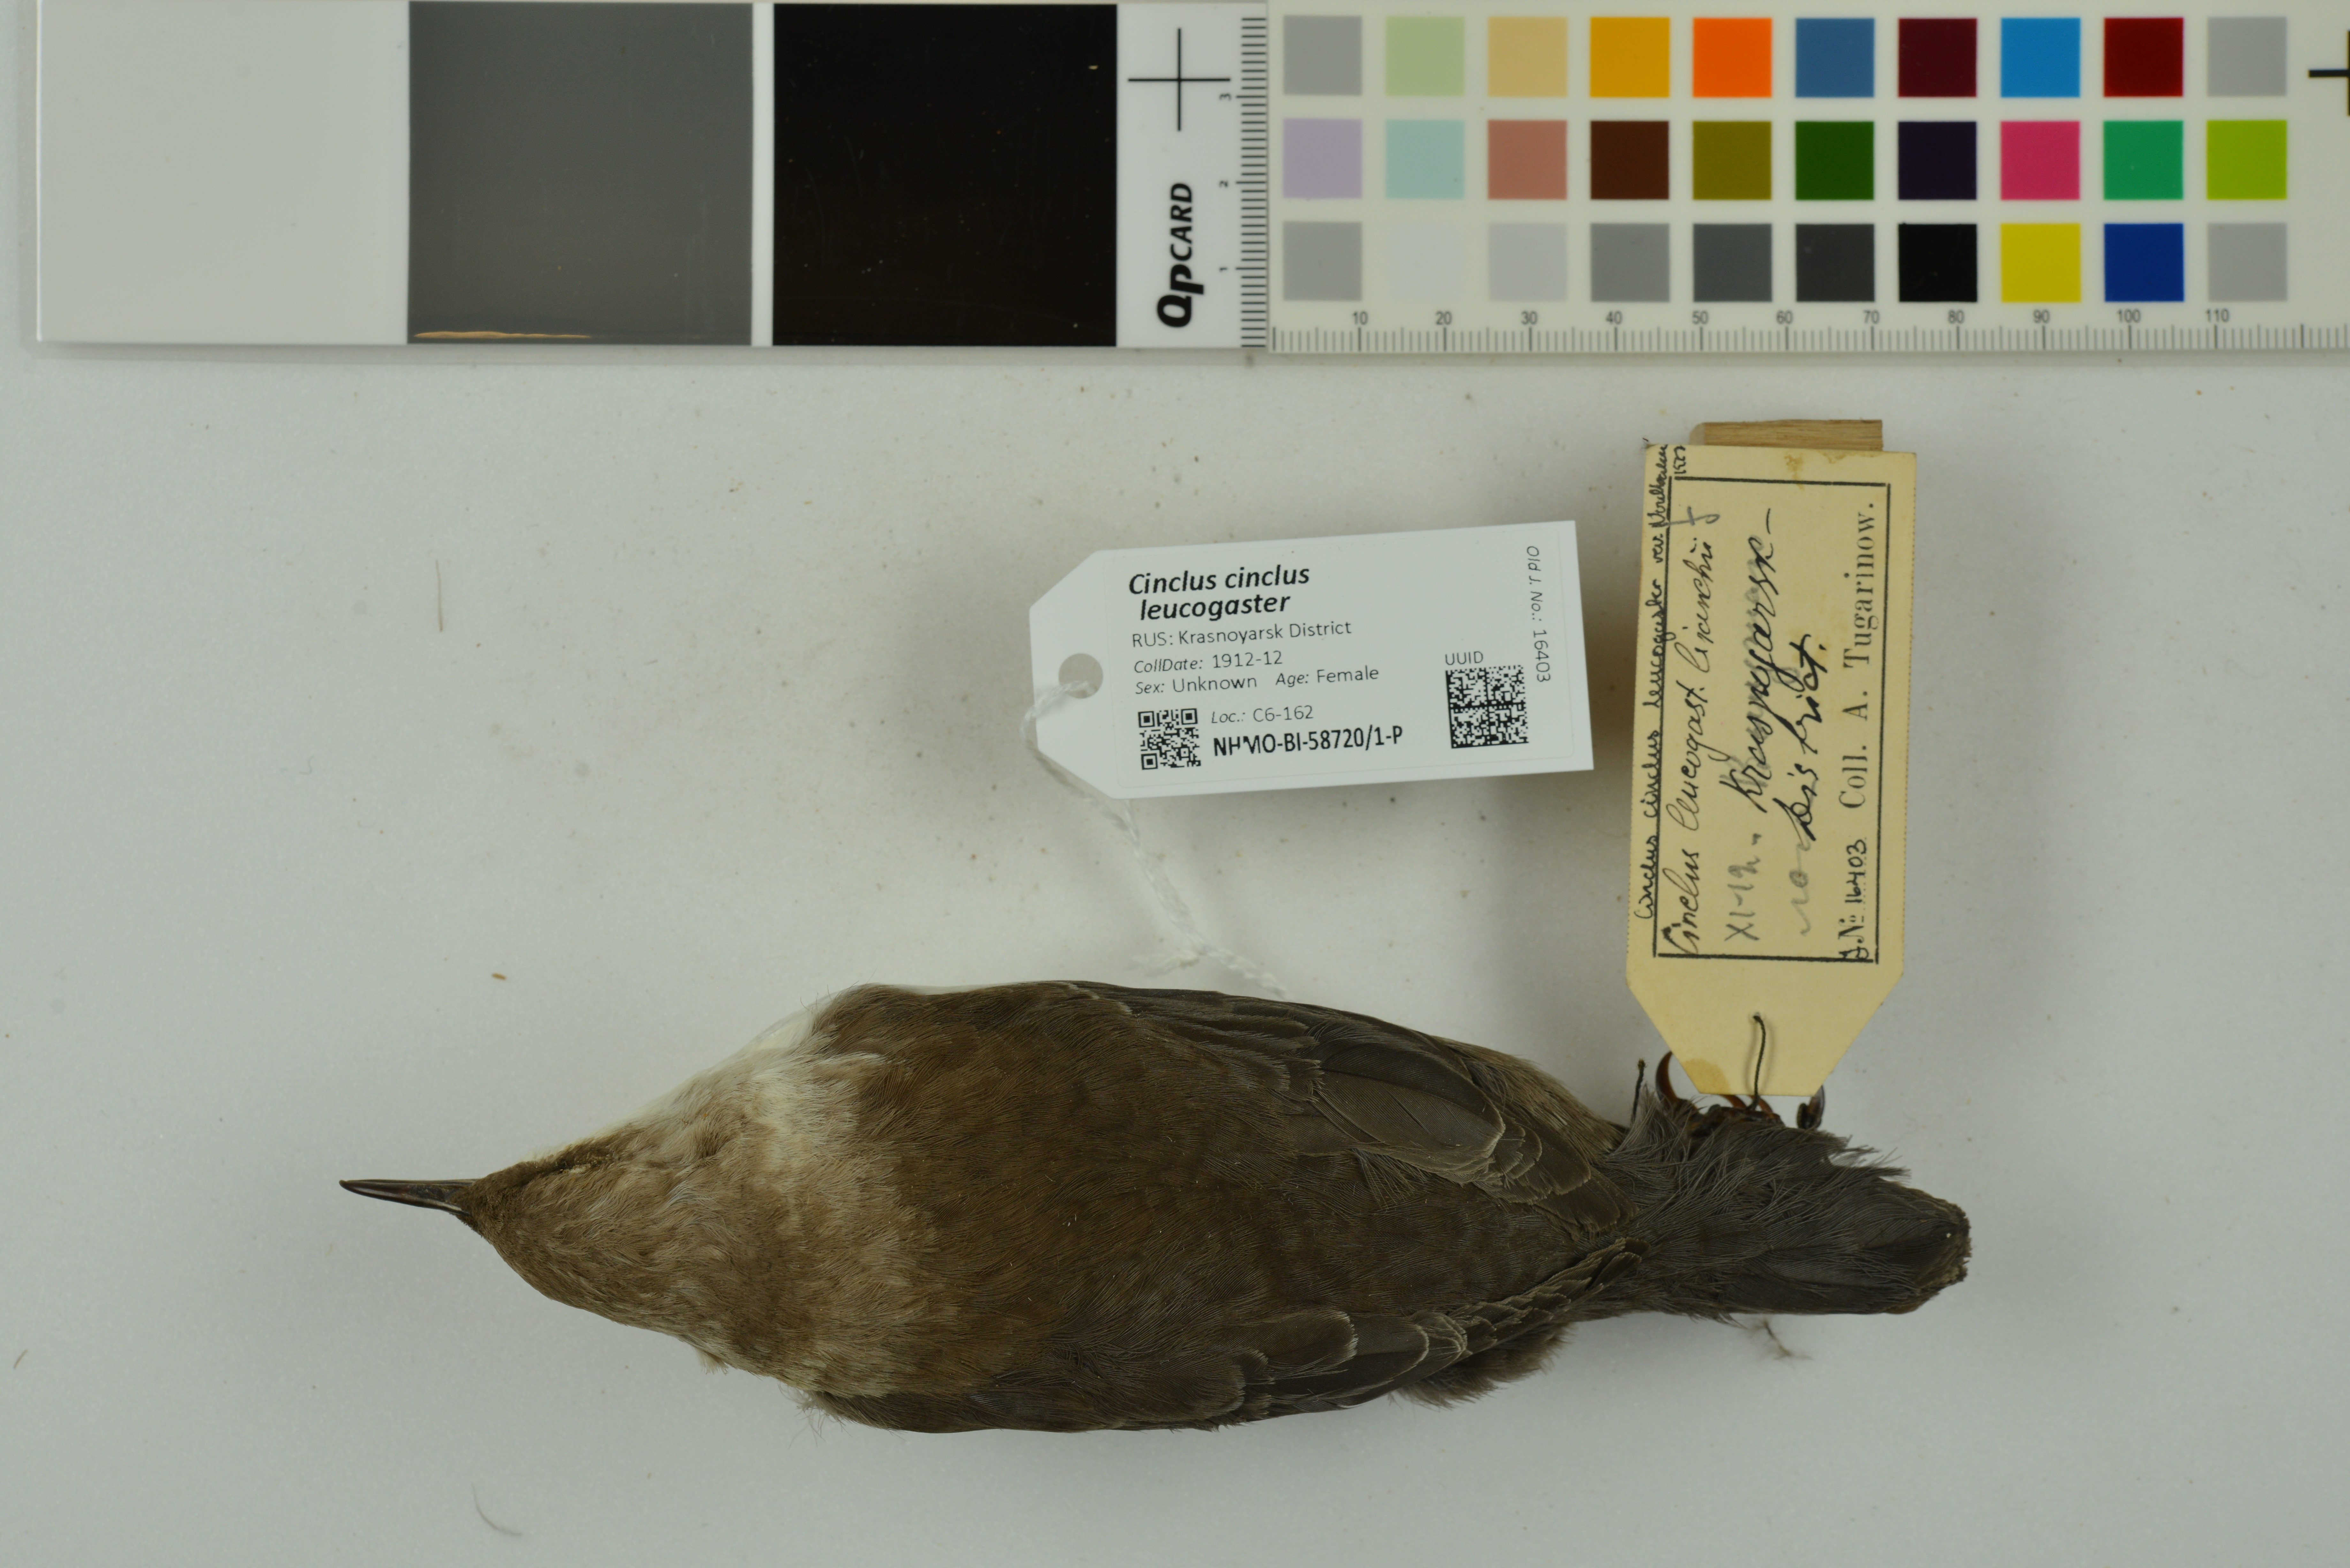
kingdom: Animalia
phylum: Chordata
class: Aves
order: Passeriformes
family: Cinclidae
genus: Cinclus
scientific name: Cinclus cinclus
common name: White-throated dipper
